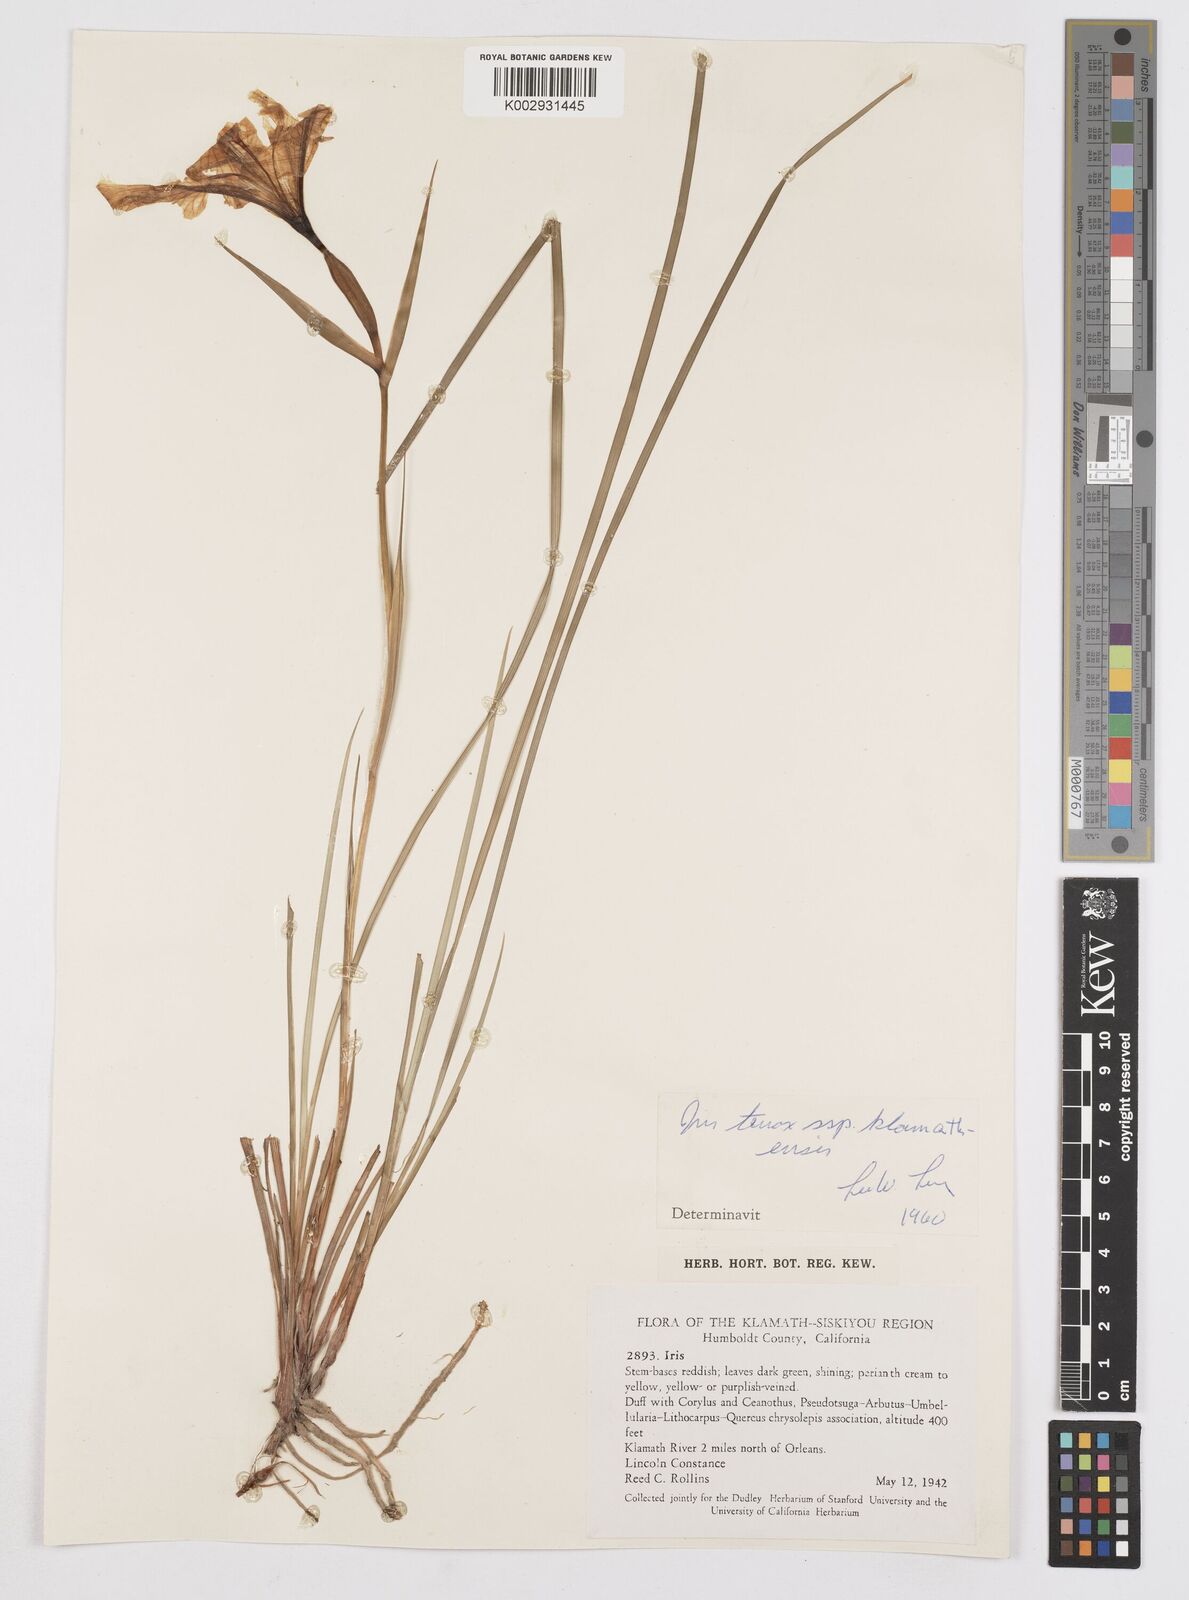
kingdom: Plantae
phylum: Tracheophyta
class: Liliopsida
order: Asparagales
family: Iridaceae
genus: Iris
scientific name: Iris tenax
